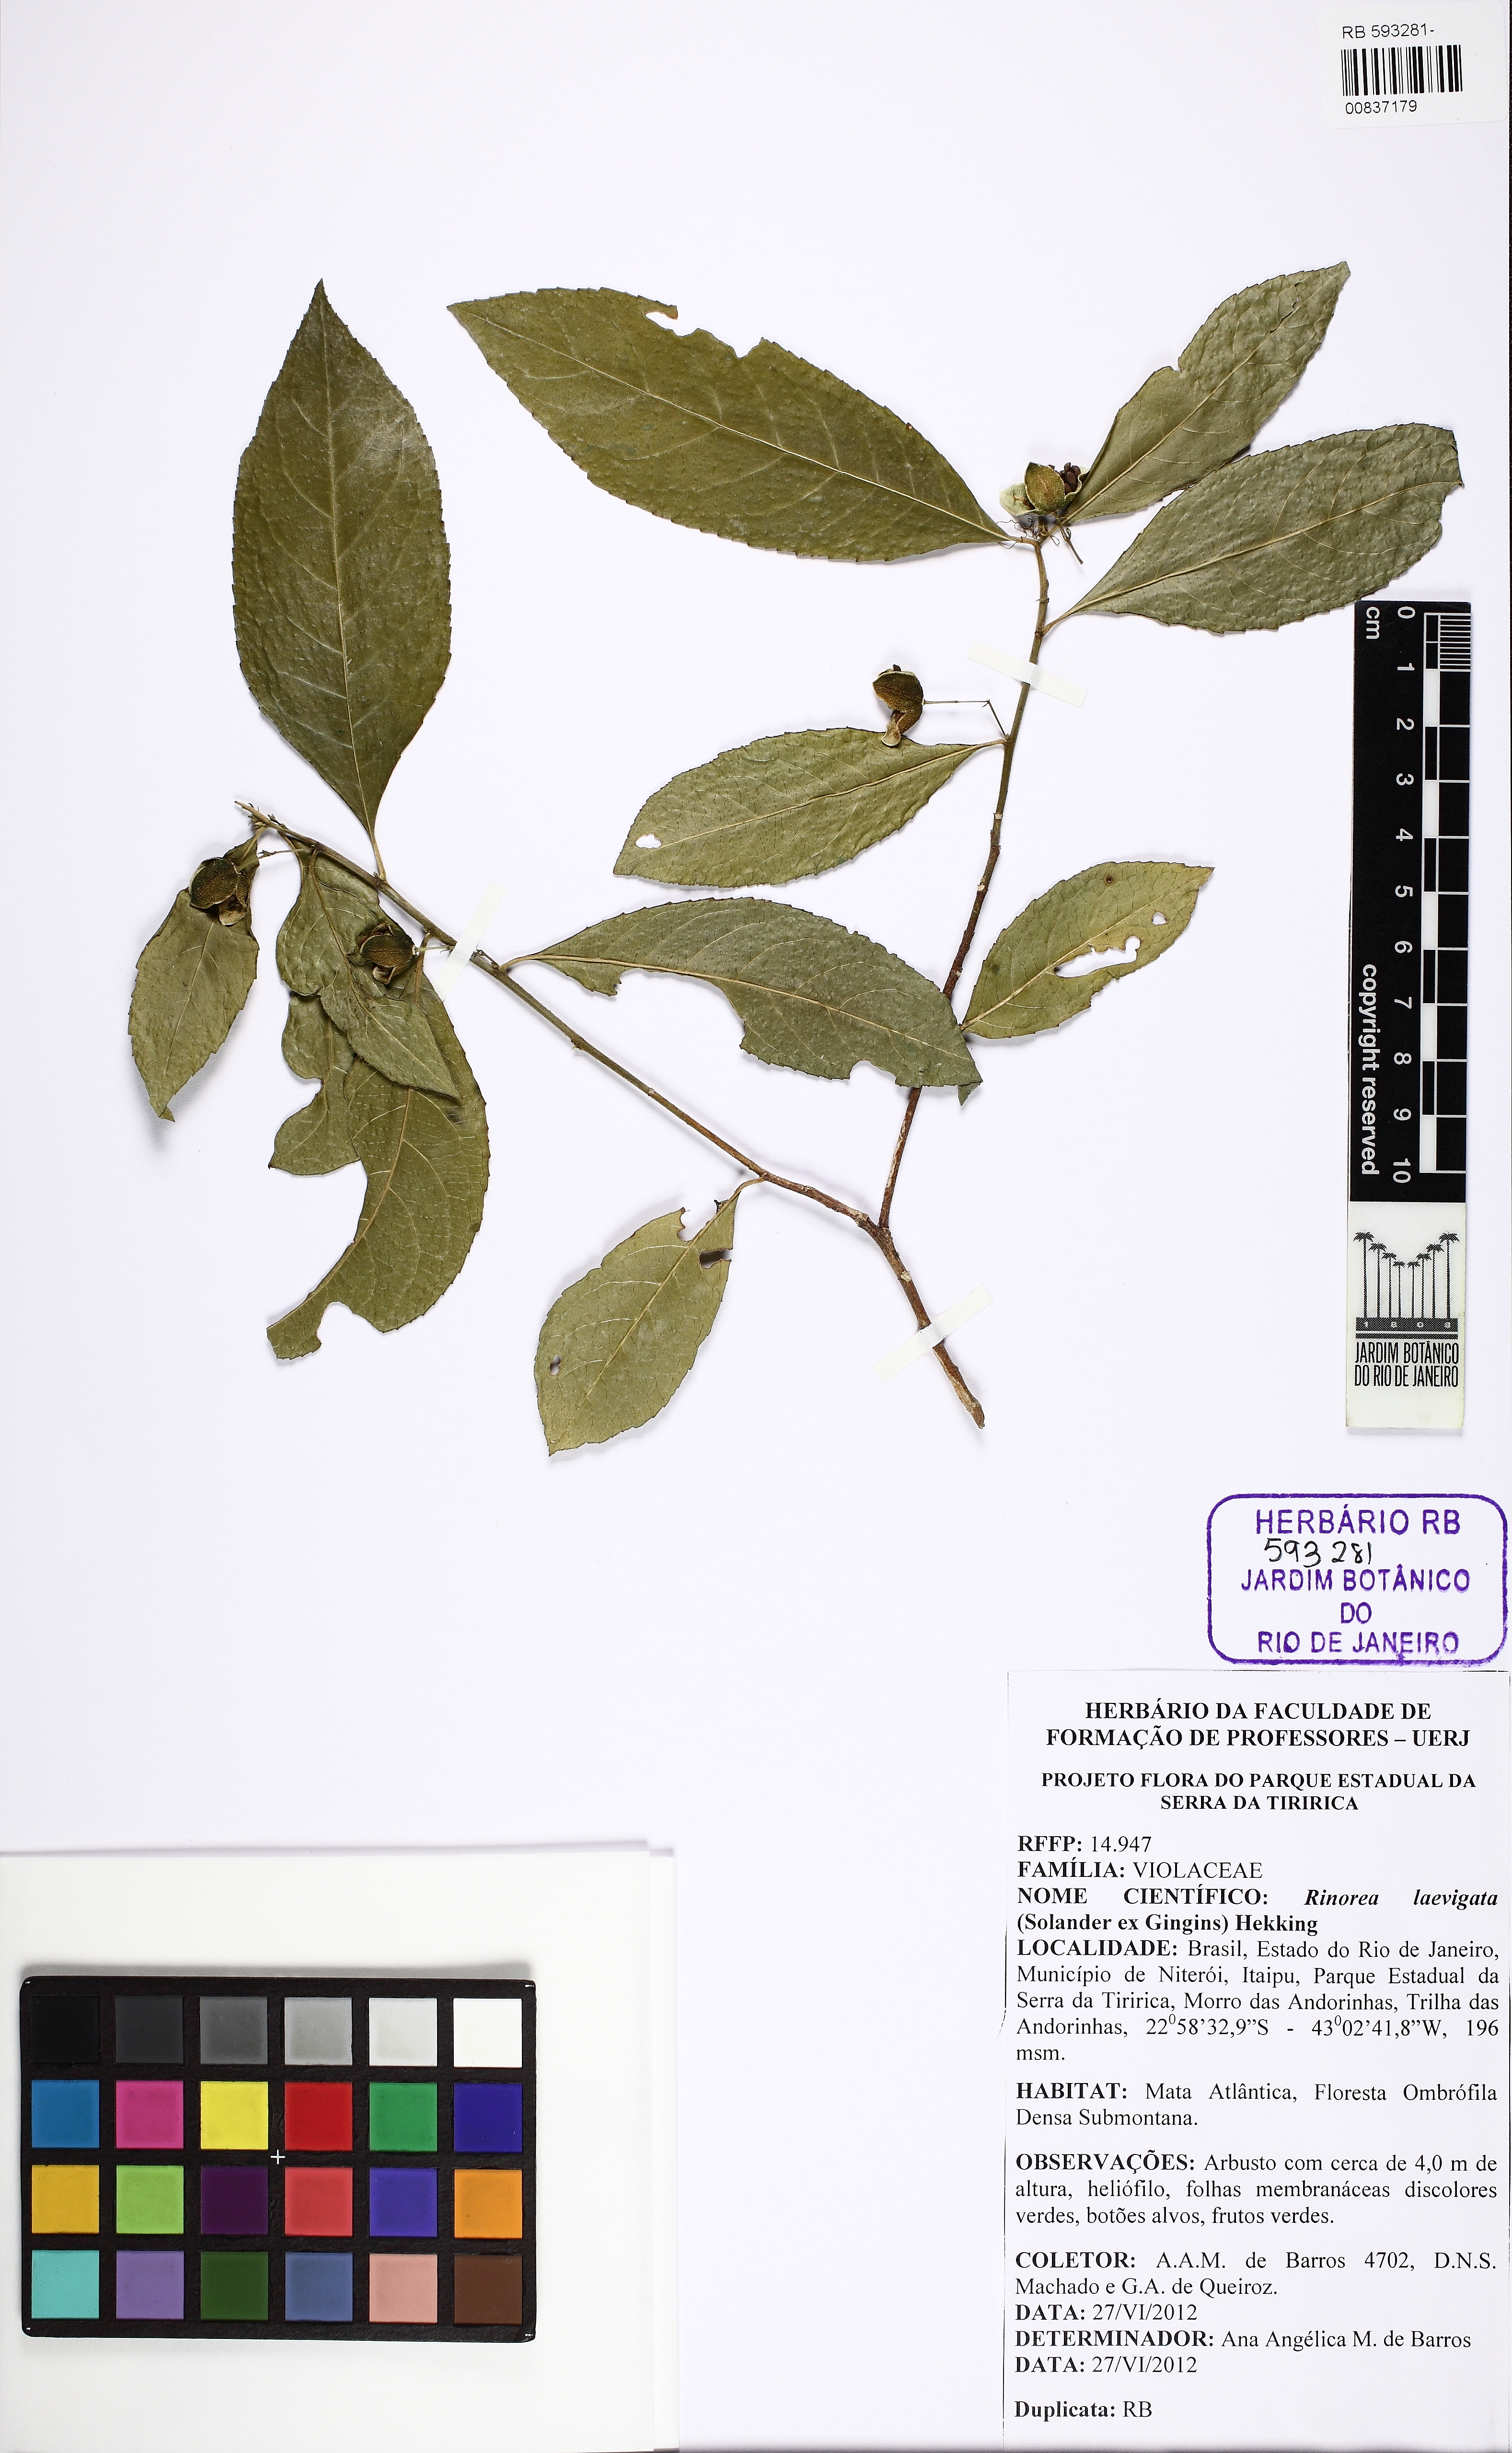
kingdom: Plantae
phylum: Tracheophyta
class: Magnoliopsida
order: Malpighiales
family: Violaceae
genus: Rinorea
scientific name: Rinorea laevigata
